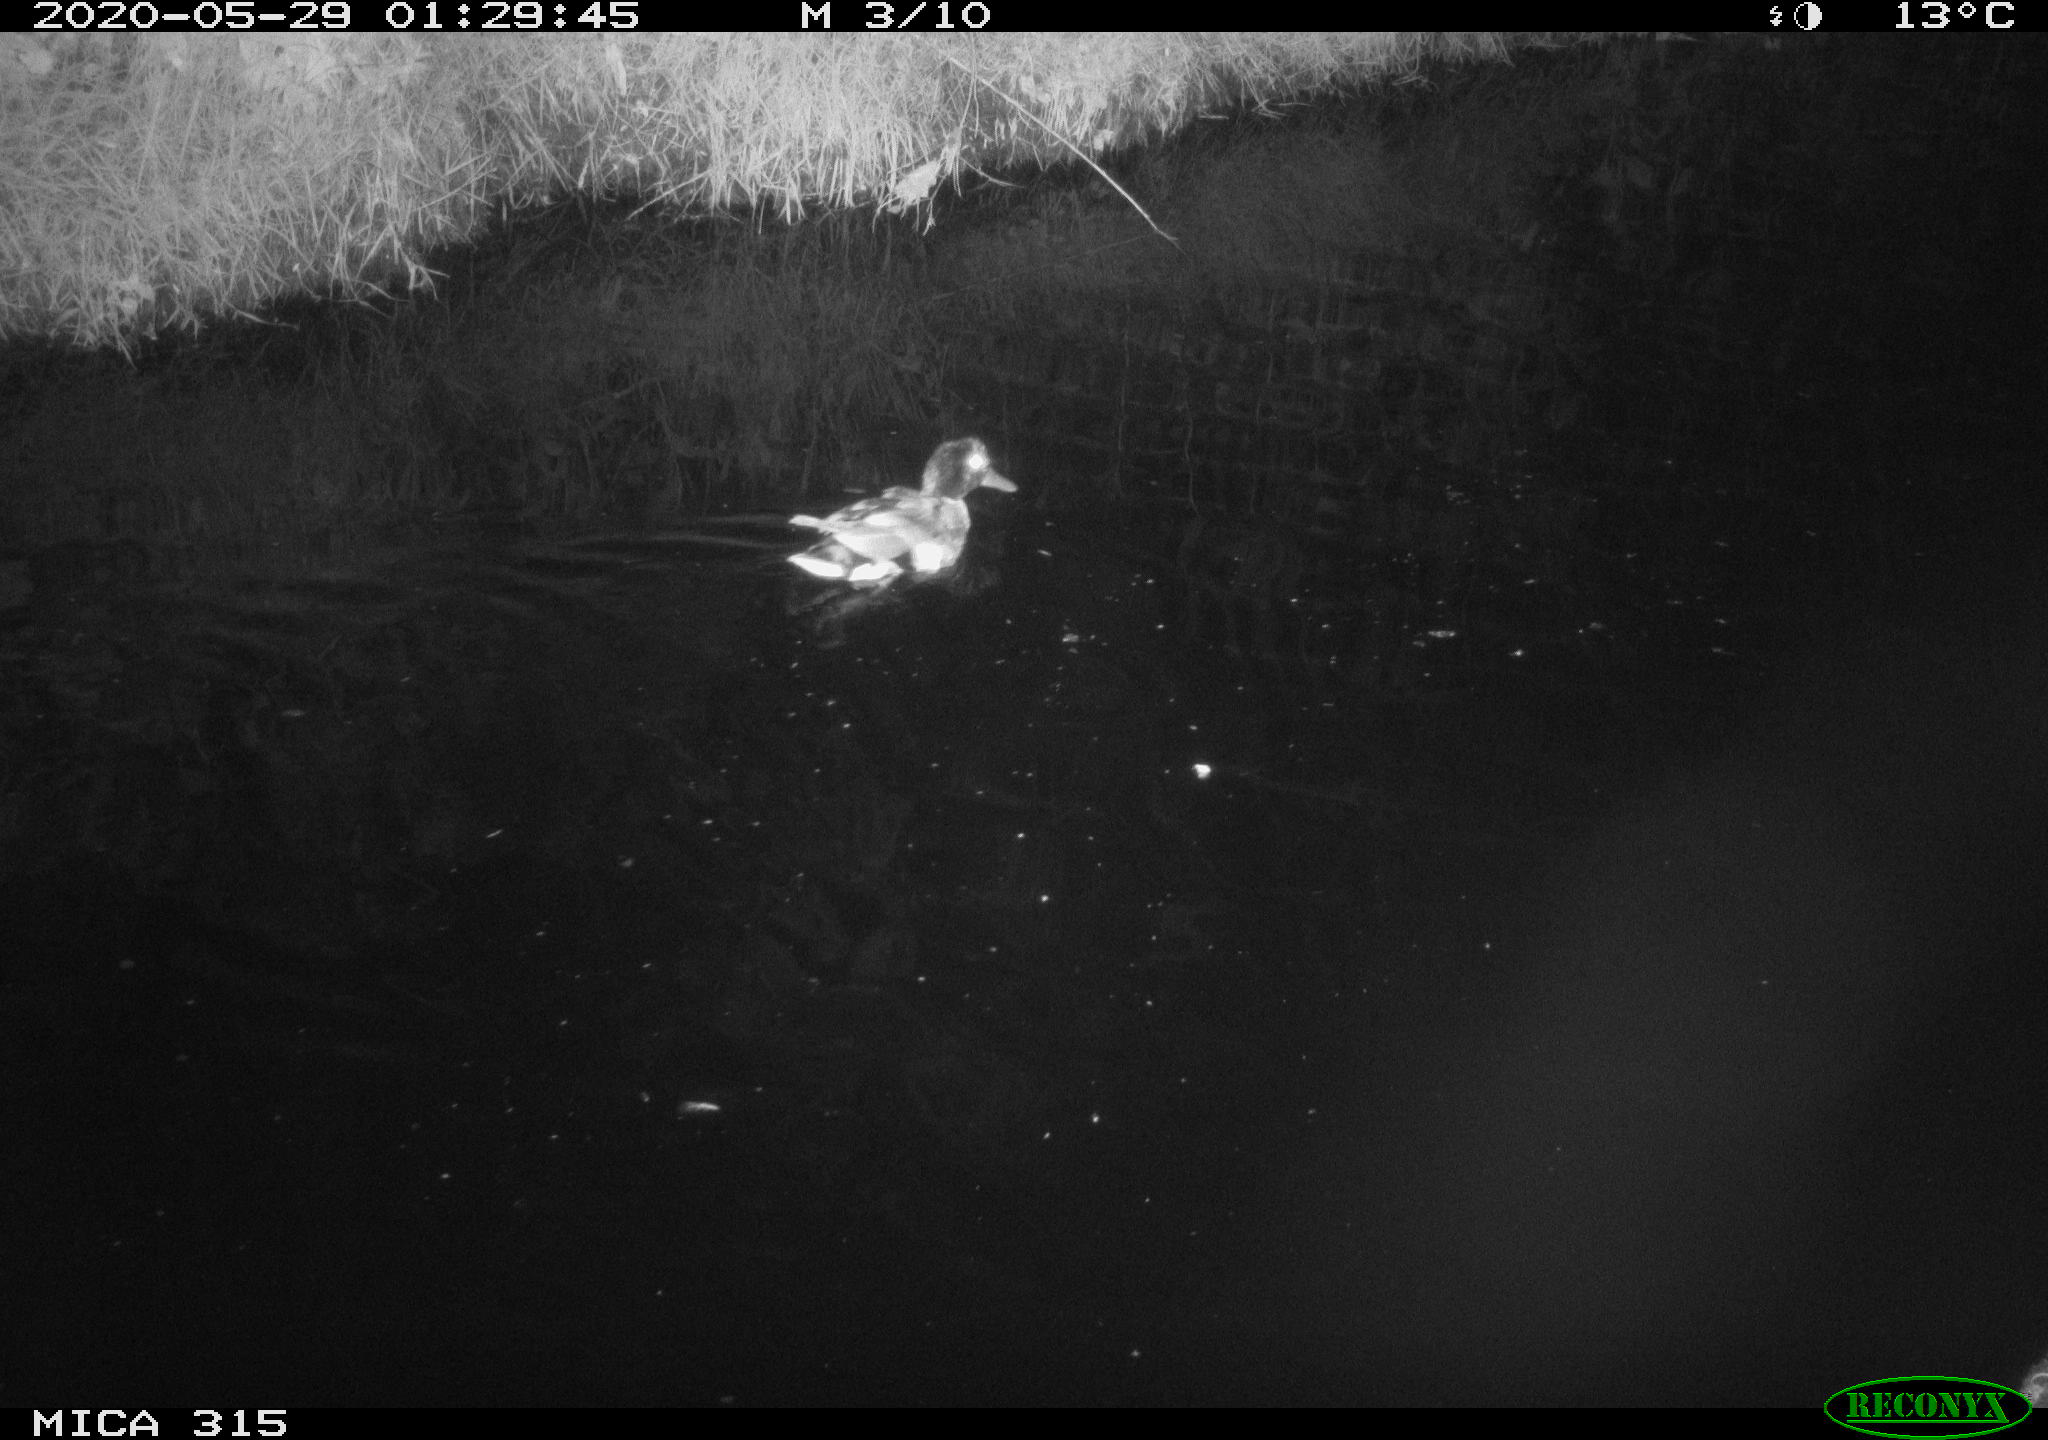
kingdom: Animalia
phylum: Chordata
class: Aves
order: Anseriformes
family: Anatidae
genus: Anas
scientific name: Anas platyrhynchos
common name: Mallard
